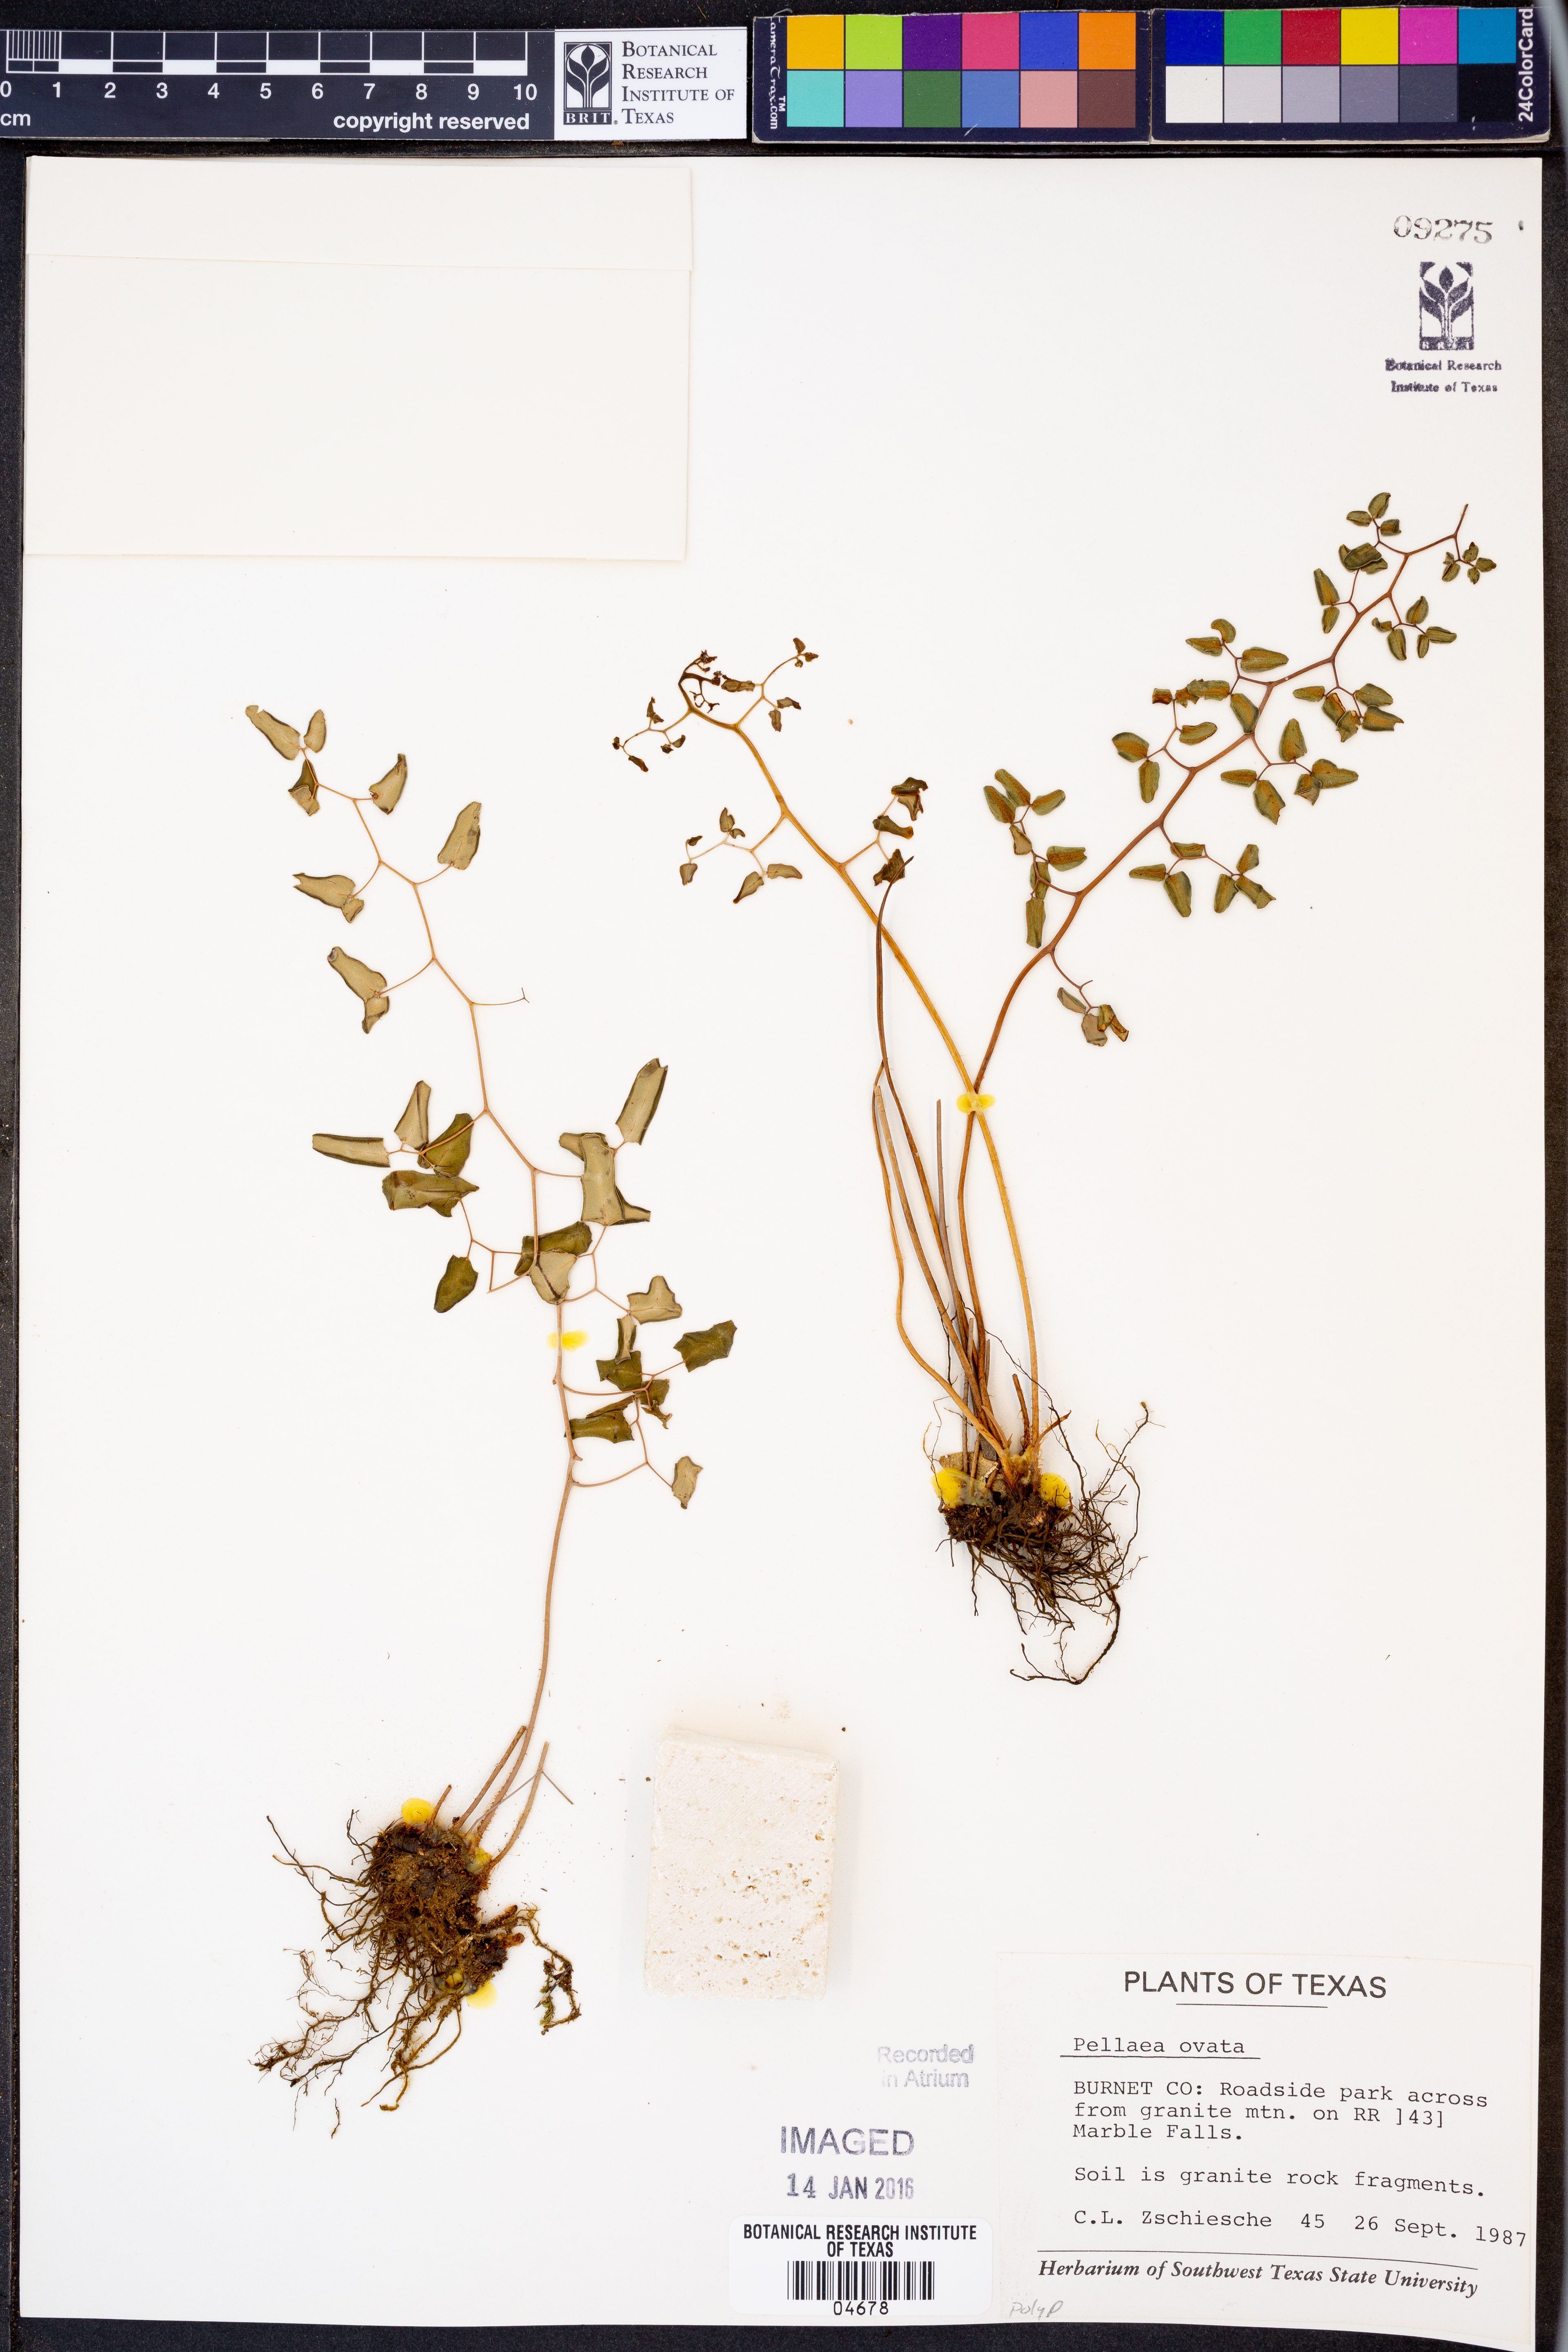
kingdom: Plantae
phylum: Tracheophyta
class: Polypodiopsida
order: Polypodiales
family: Pteridaceae
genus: Pellaea
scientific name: Pellaea ovata
